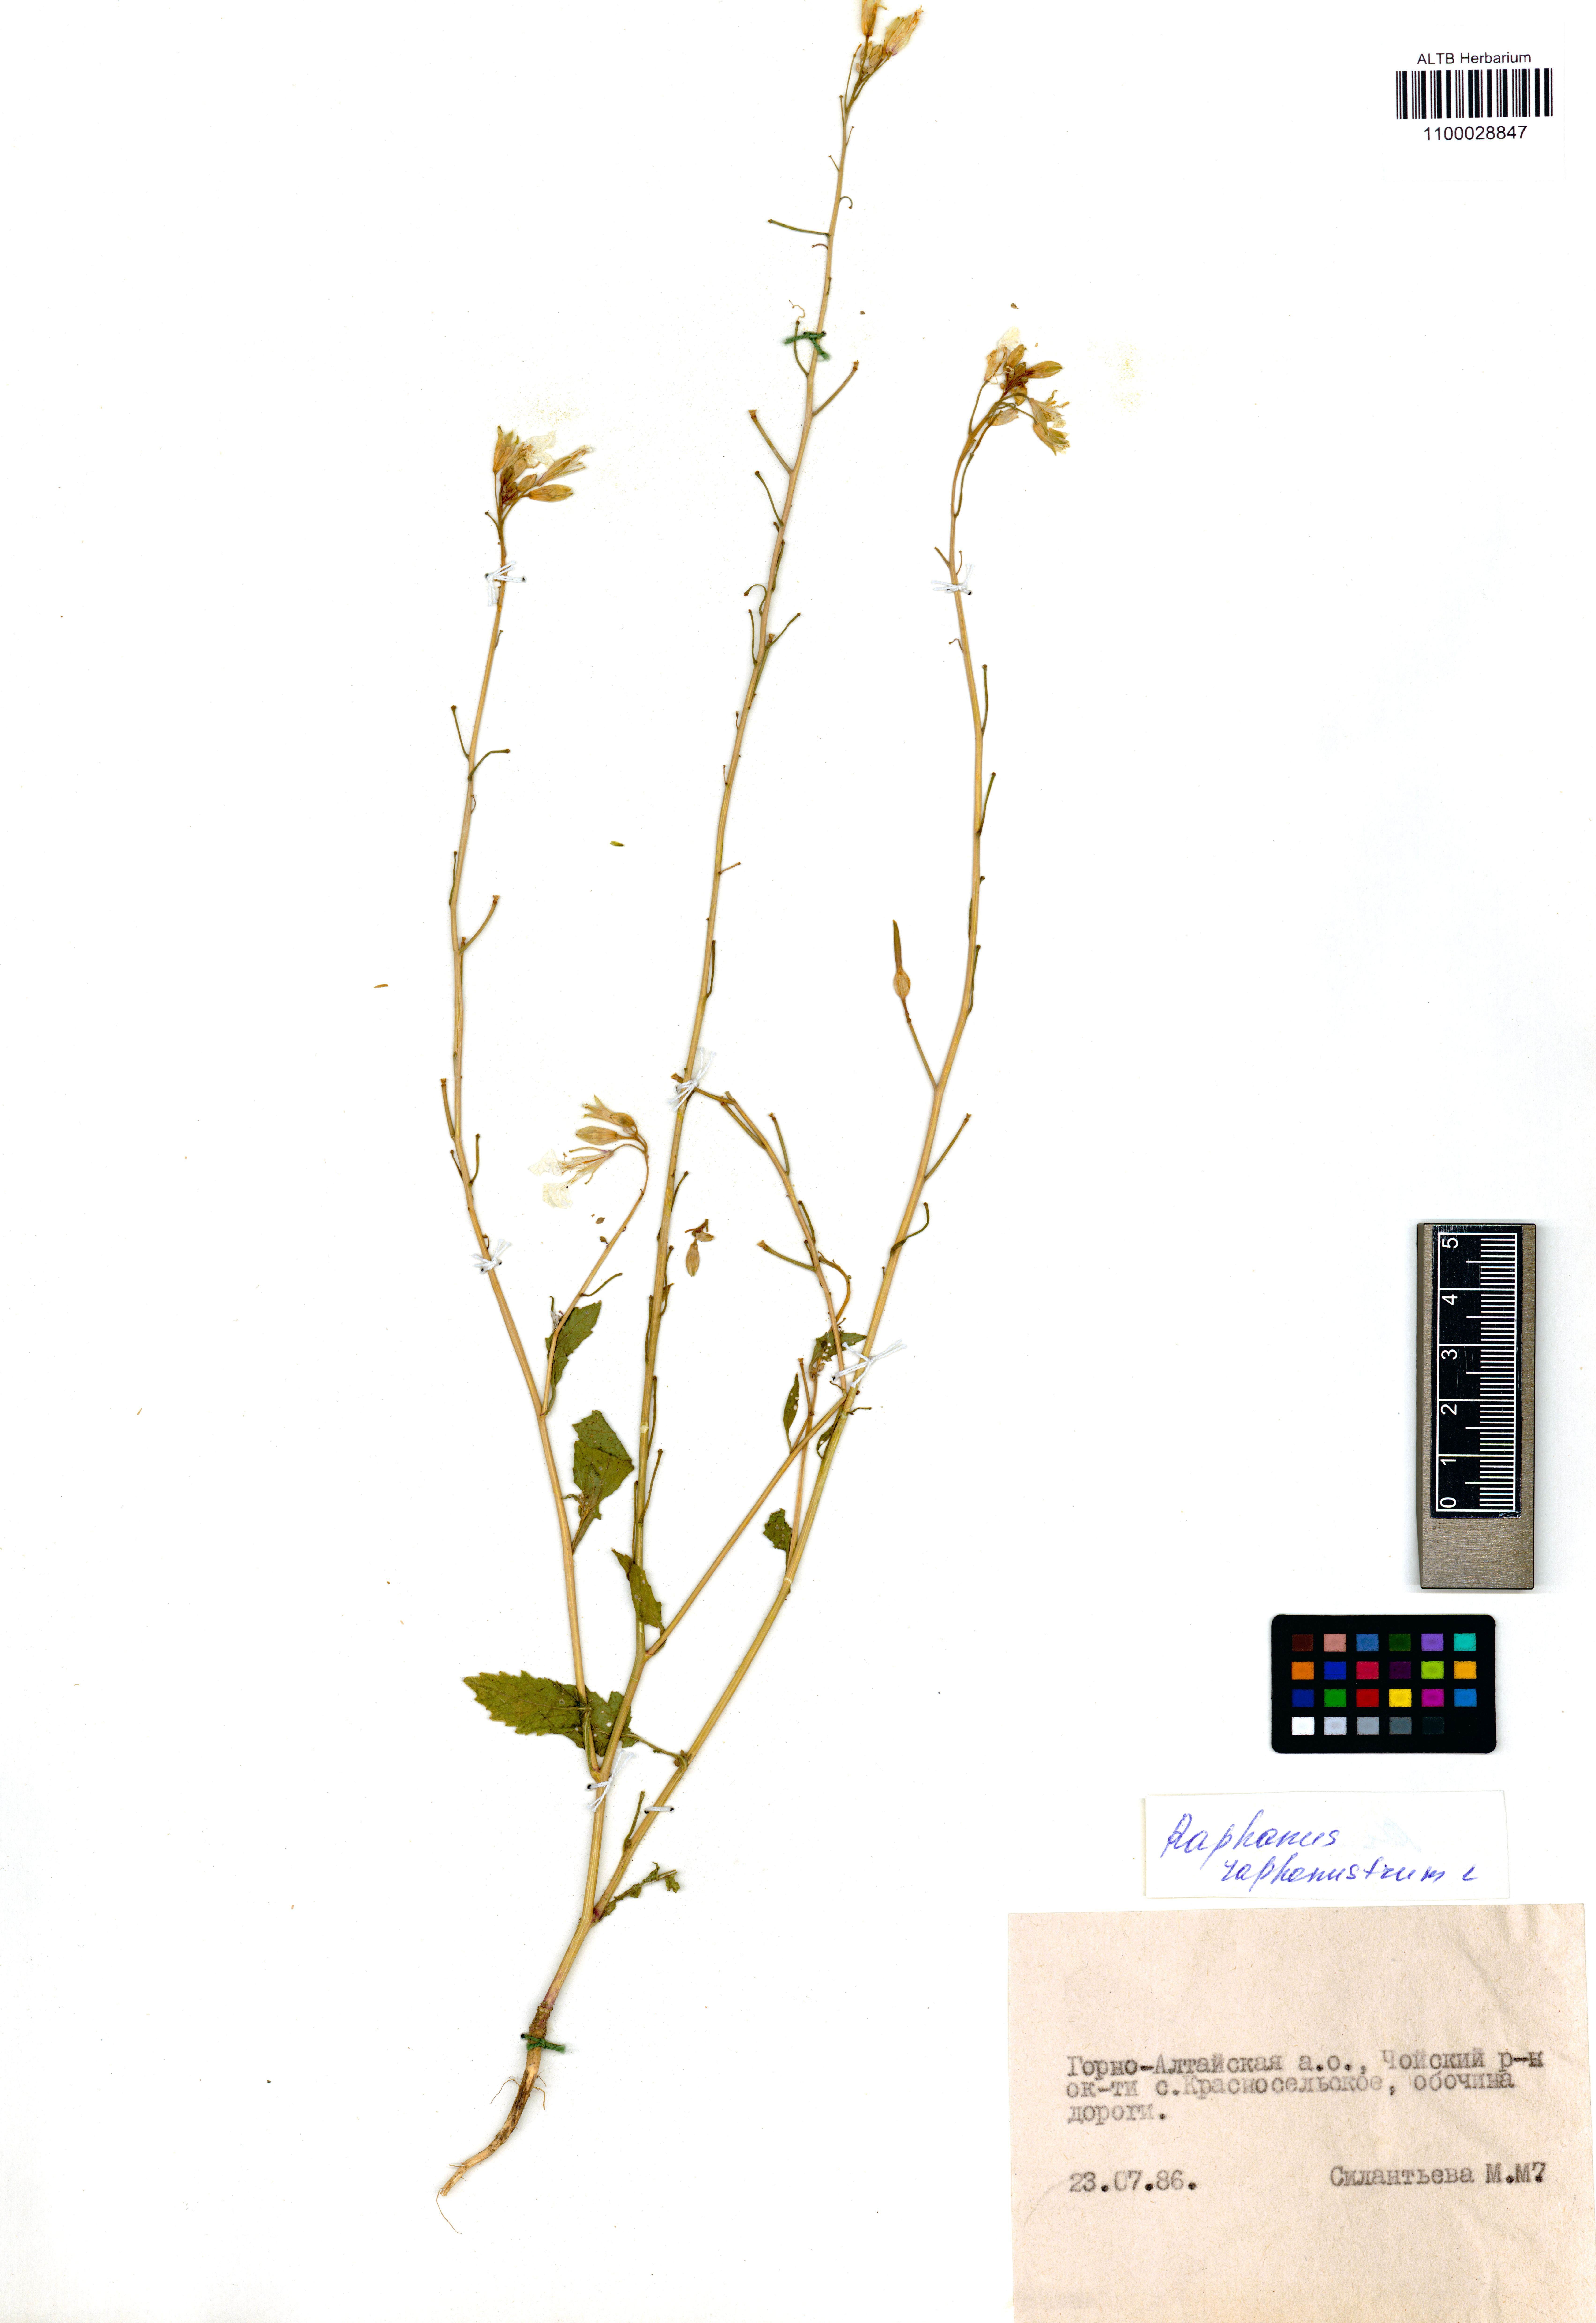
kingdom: Plantae
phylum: Tracheophyta
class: Magnoliopsida
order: Brassicales
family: Brassicaceae
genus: Raphanus
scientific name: Raphanus raphanistrum
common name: Wild radish
